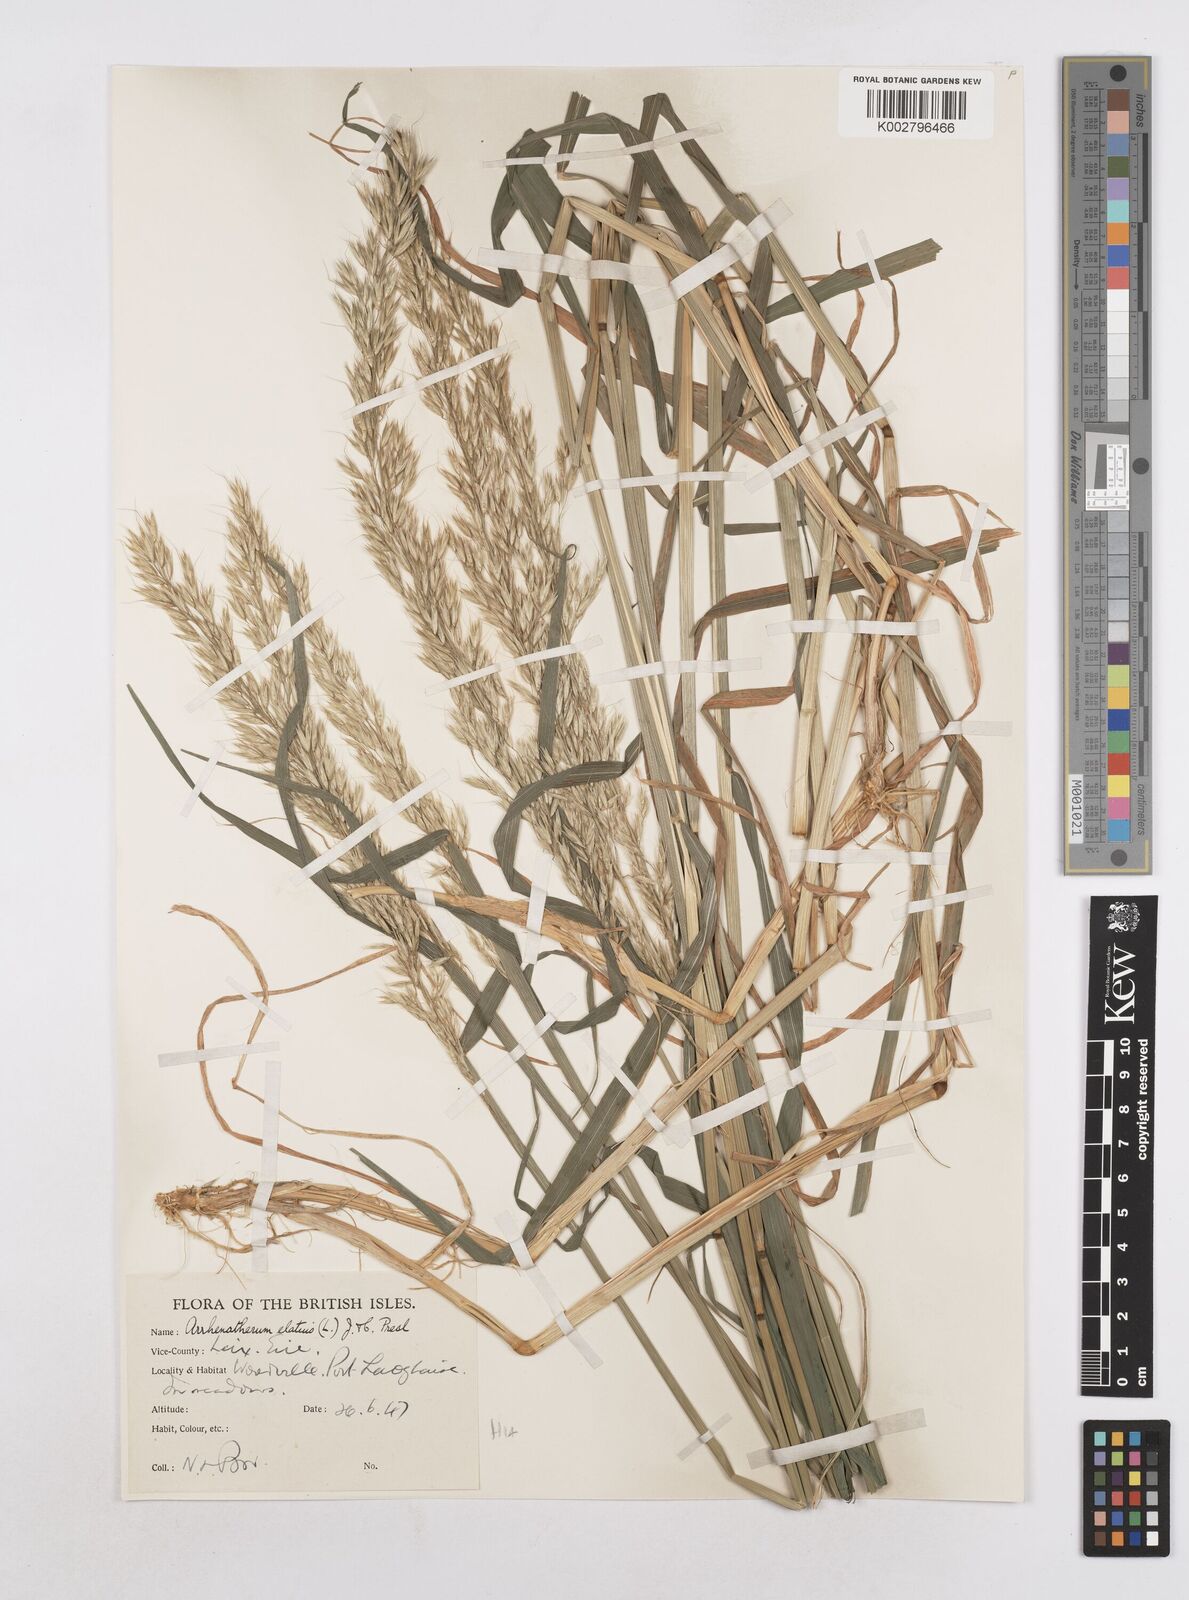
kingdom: Plantae
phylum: Tracheophyta
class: Liliopsida
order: Poales
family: Poaceae
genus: Arrhenatherum
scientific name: Arrhenatherum elatius
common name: Tall oatgrass
